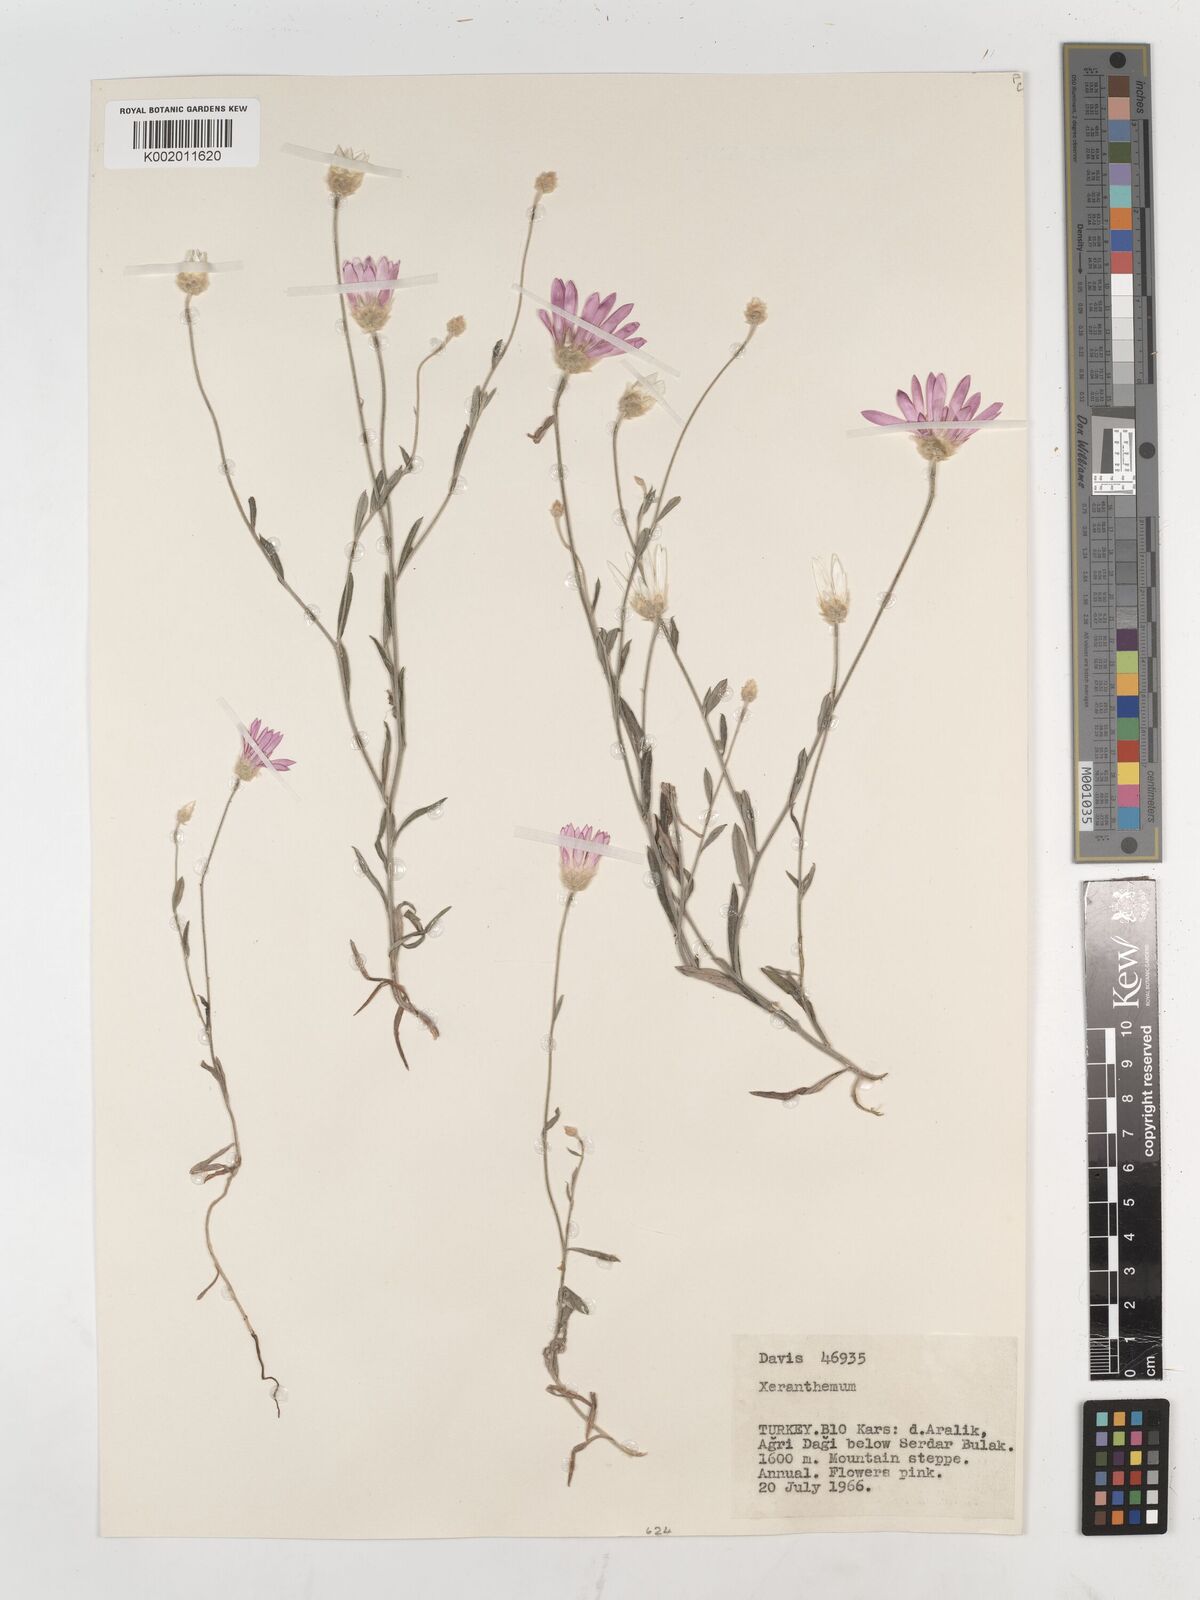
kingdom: Plantae
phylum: Tracheophyta
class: Magnoliopsida
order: Asterales
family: Asteraceae
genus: Xeranthemum
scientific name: Xeranthemum annuum
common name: Immortelle
